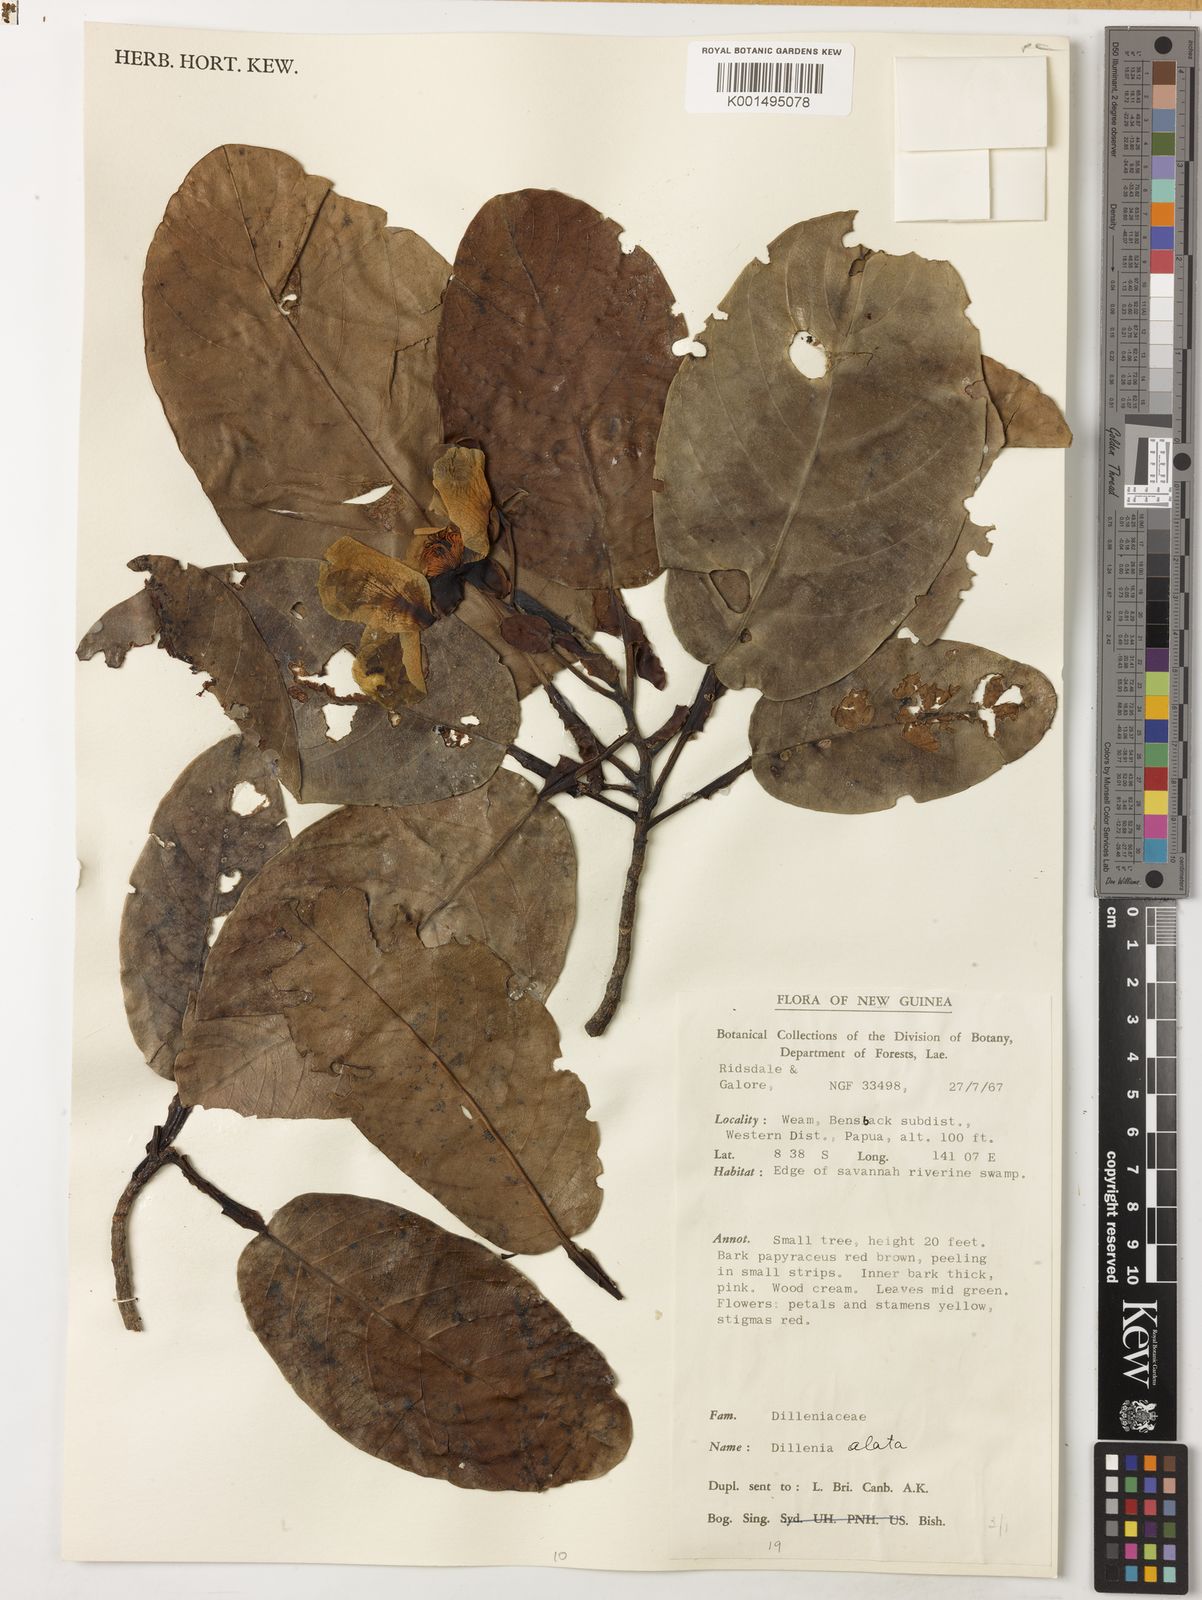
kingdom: Plantae
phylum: Tracheophyta
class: Magnoliopsida
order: Dilleniales
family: Dilleniaceae
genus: Dillenia
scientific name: Dillenia alata
